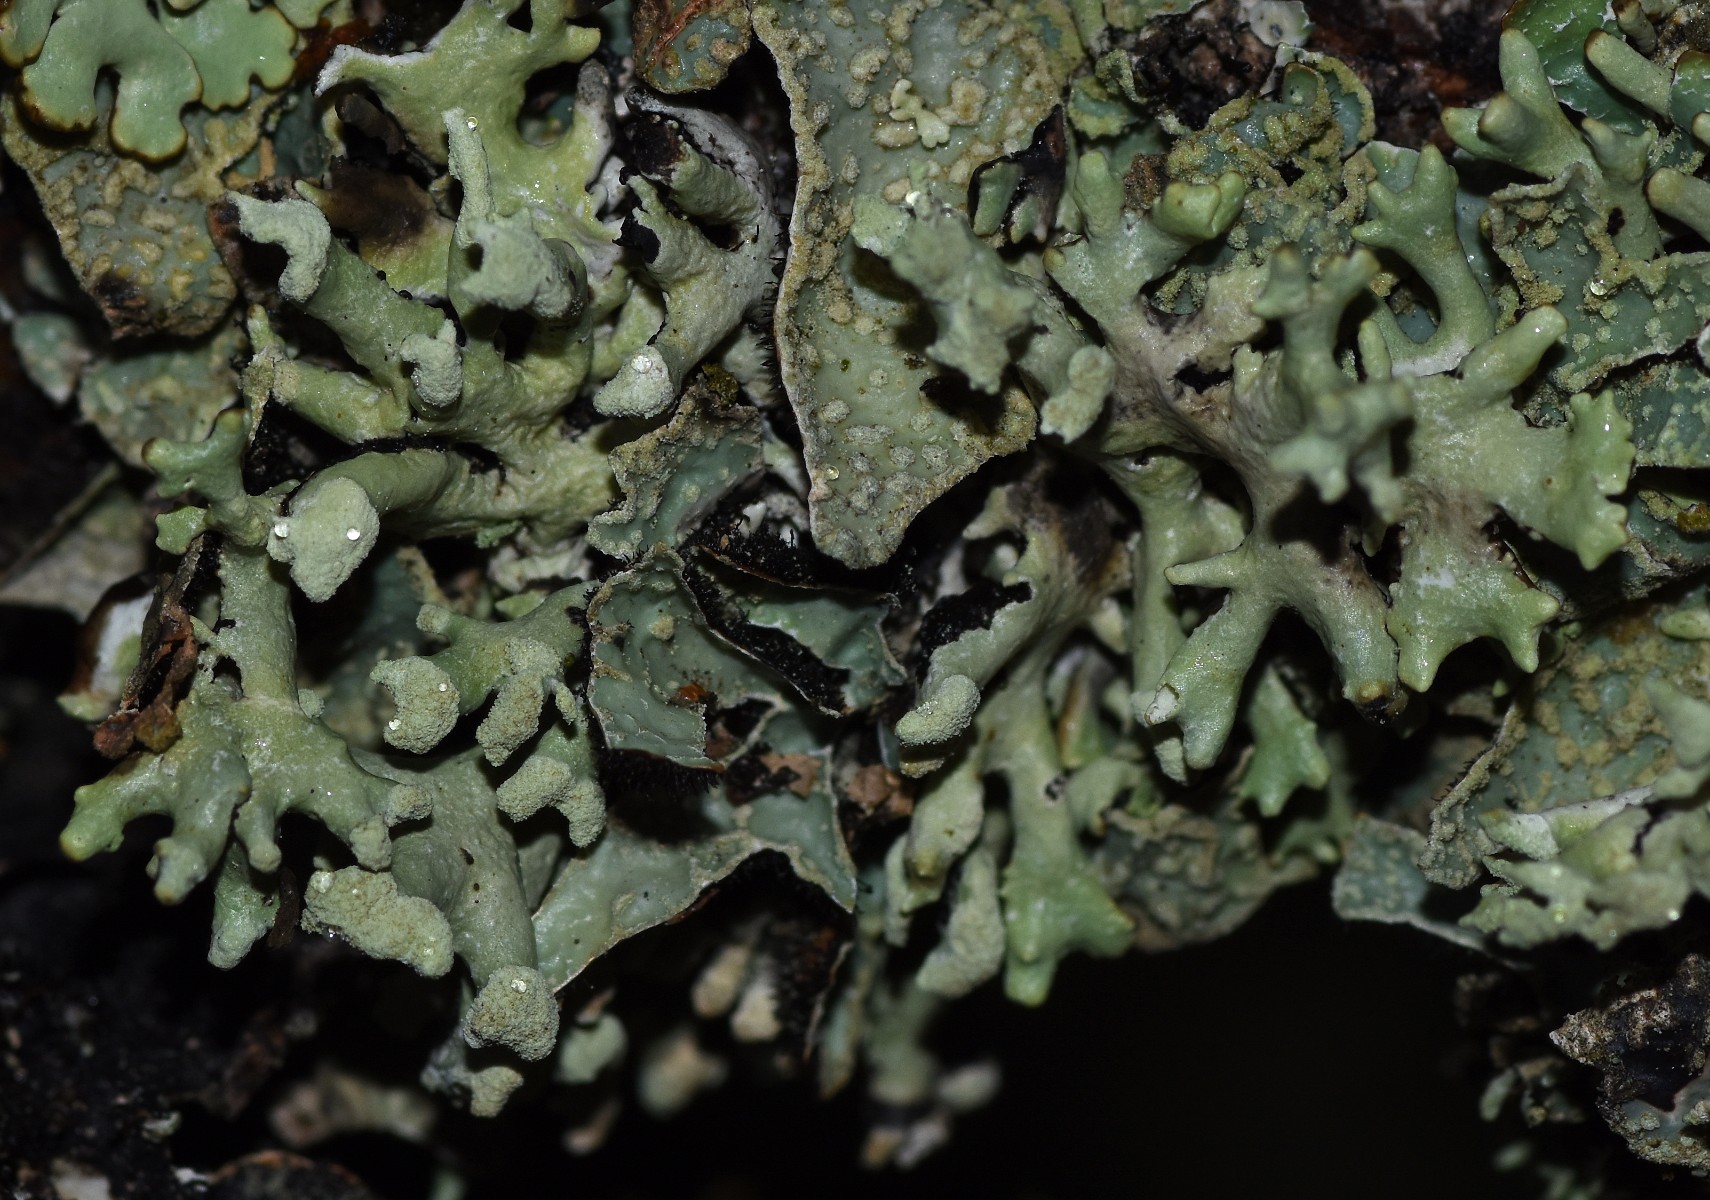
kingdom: Fungi
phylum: Ascomycota
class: Lecanoromycetes
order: Lecanorales
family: Parmeliaceae
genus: Hypogymnia
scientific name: Hypogymnia tubulosa
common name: finger-kvistlav
